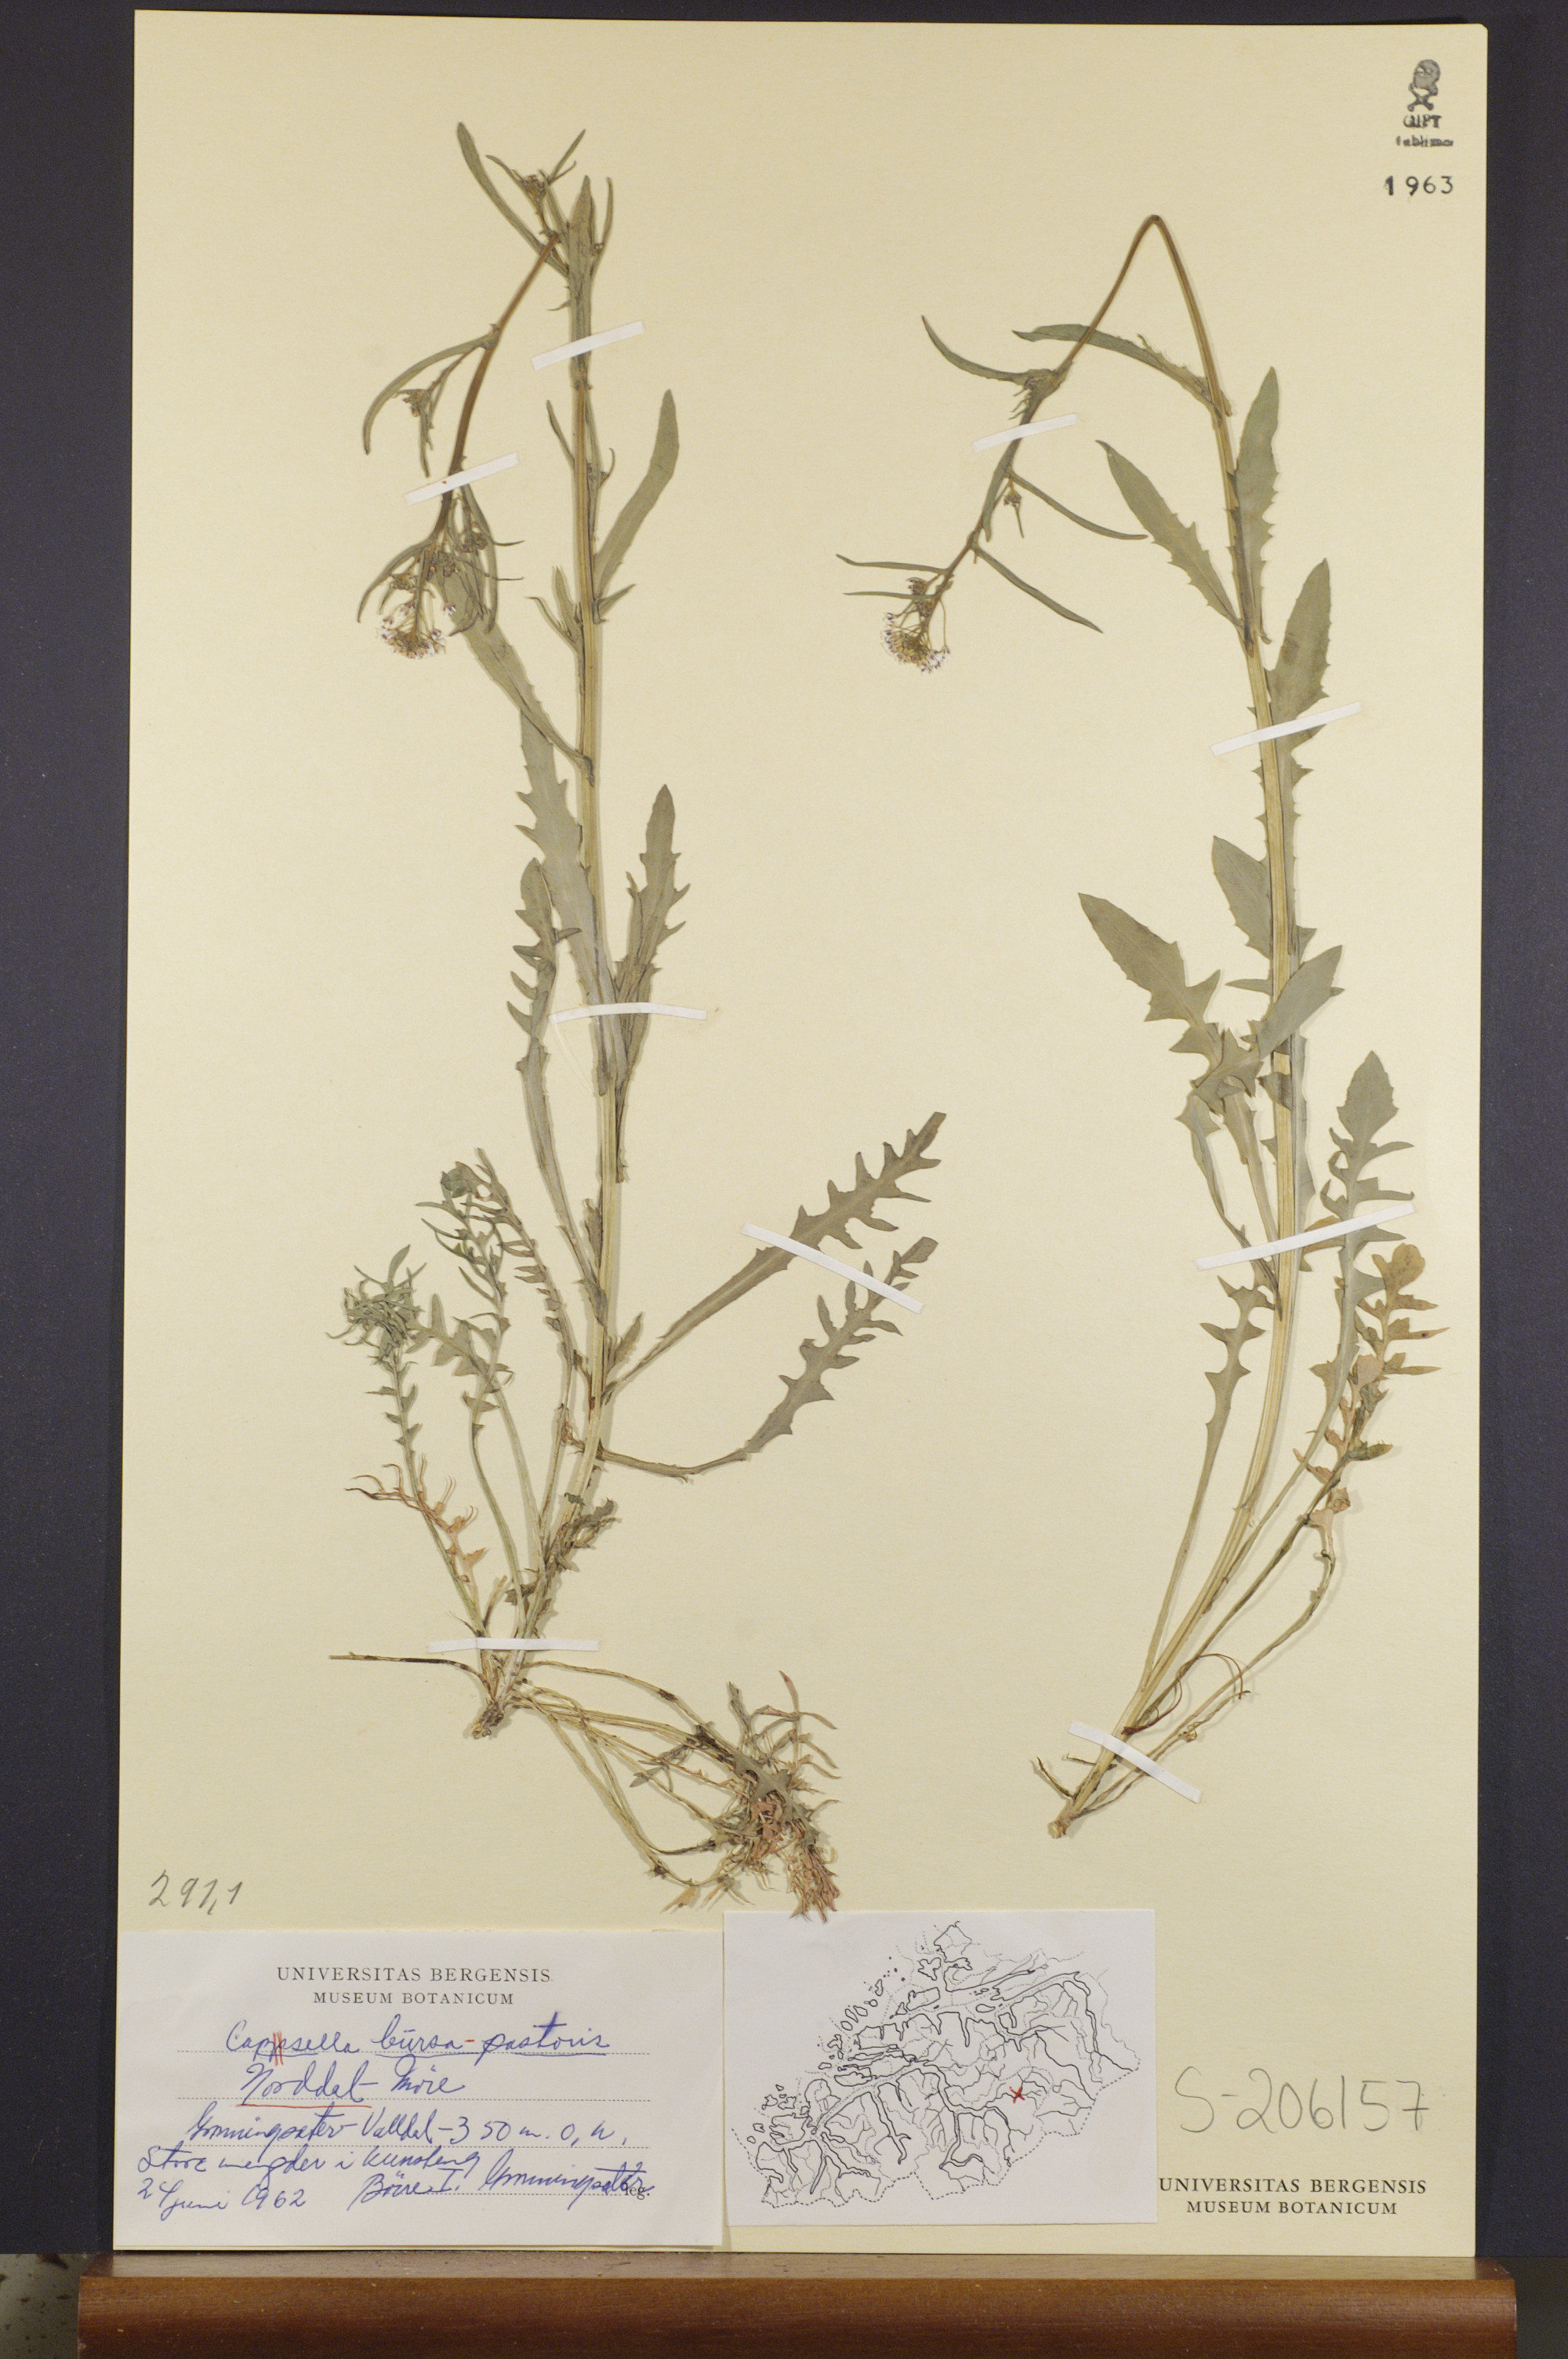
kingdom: Plantae
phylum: Tracheophyta
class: Magnoliopsida
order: Brassicales
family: Brassicaceae
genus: Capsella
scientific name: Capsella bursa-pastoris
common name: Shepherd's purse
